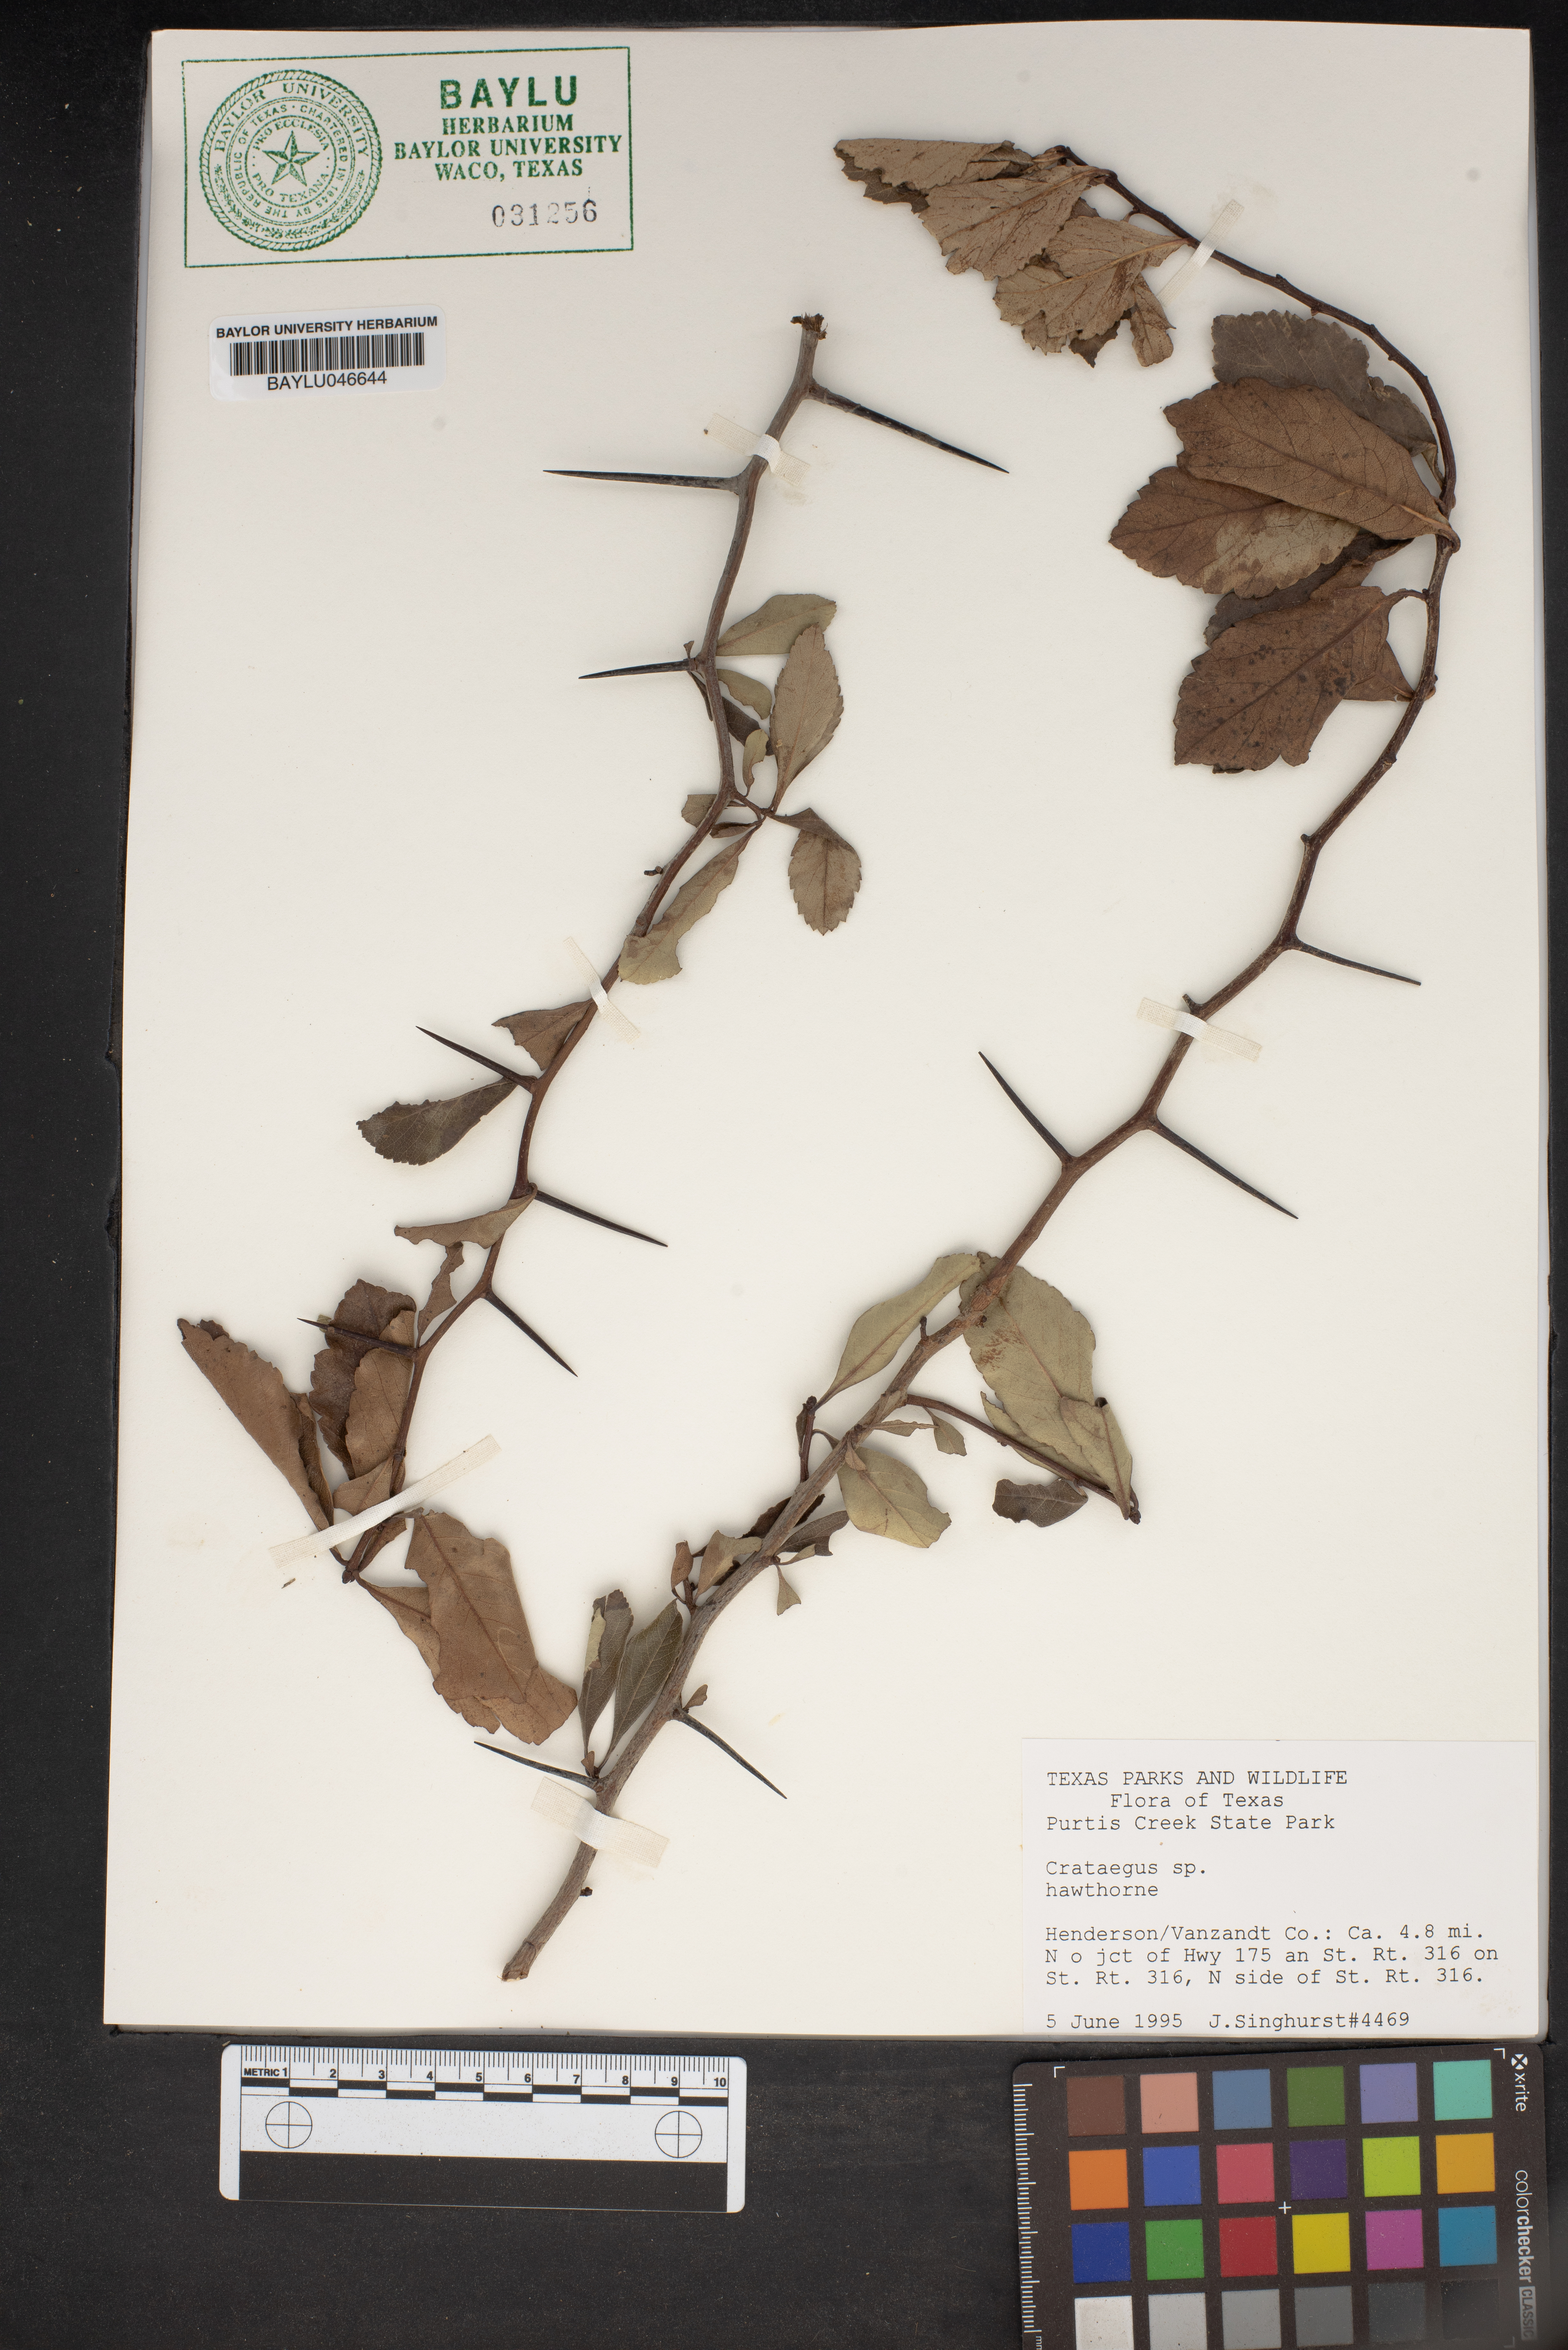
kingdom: Plantae
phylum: Tracheophyta
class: Magnoliopsida
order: Rosales
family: Rosaceae
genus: Crataegus
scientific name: Crataegus
